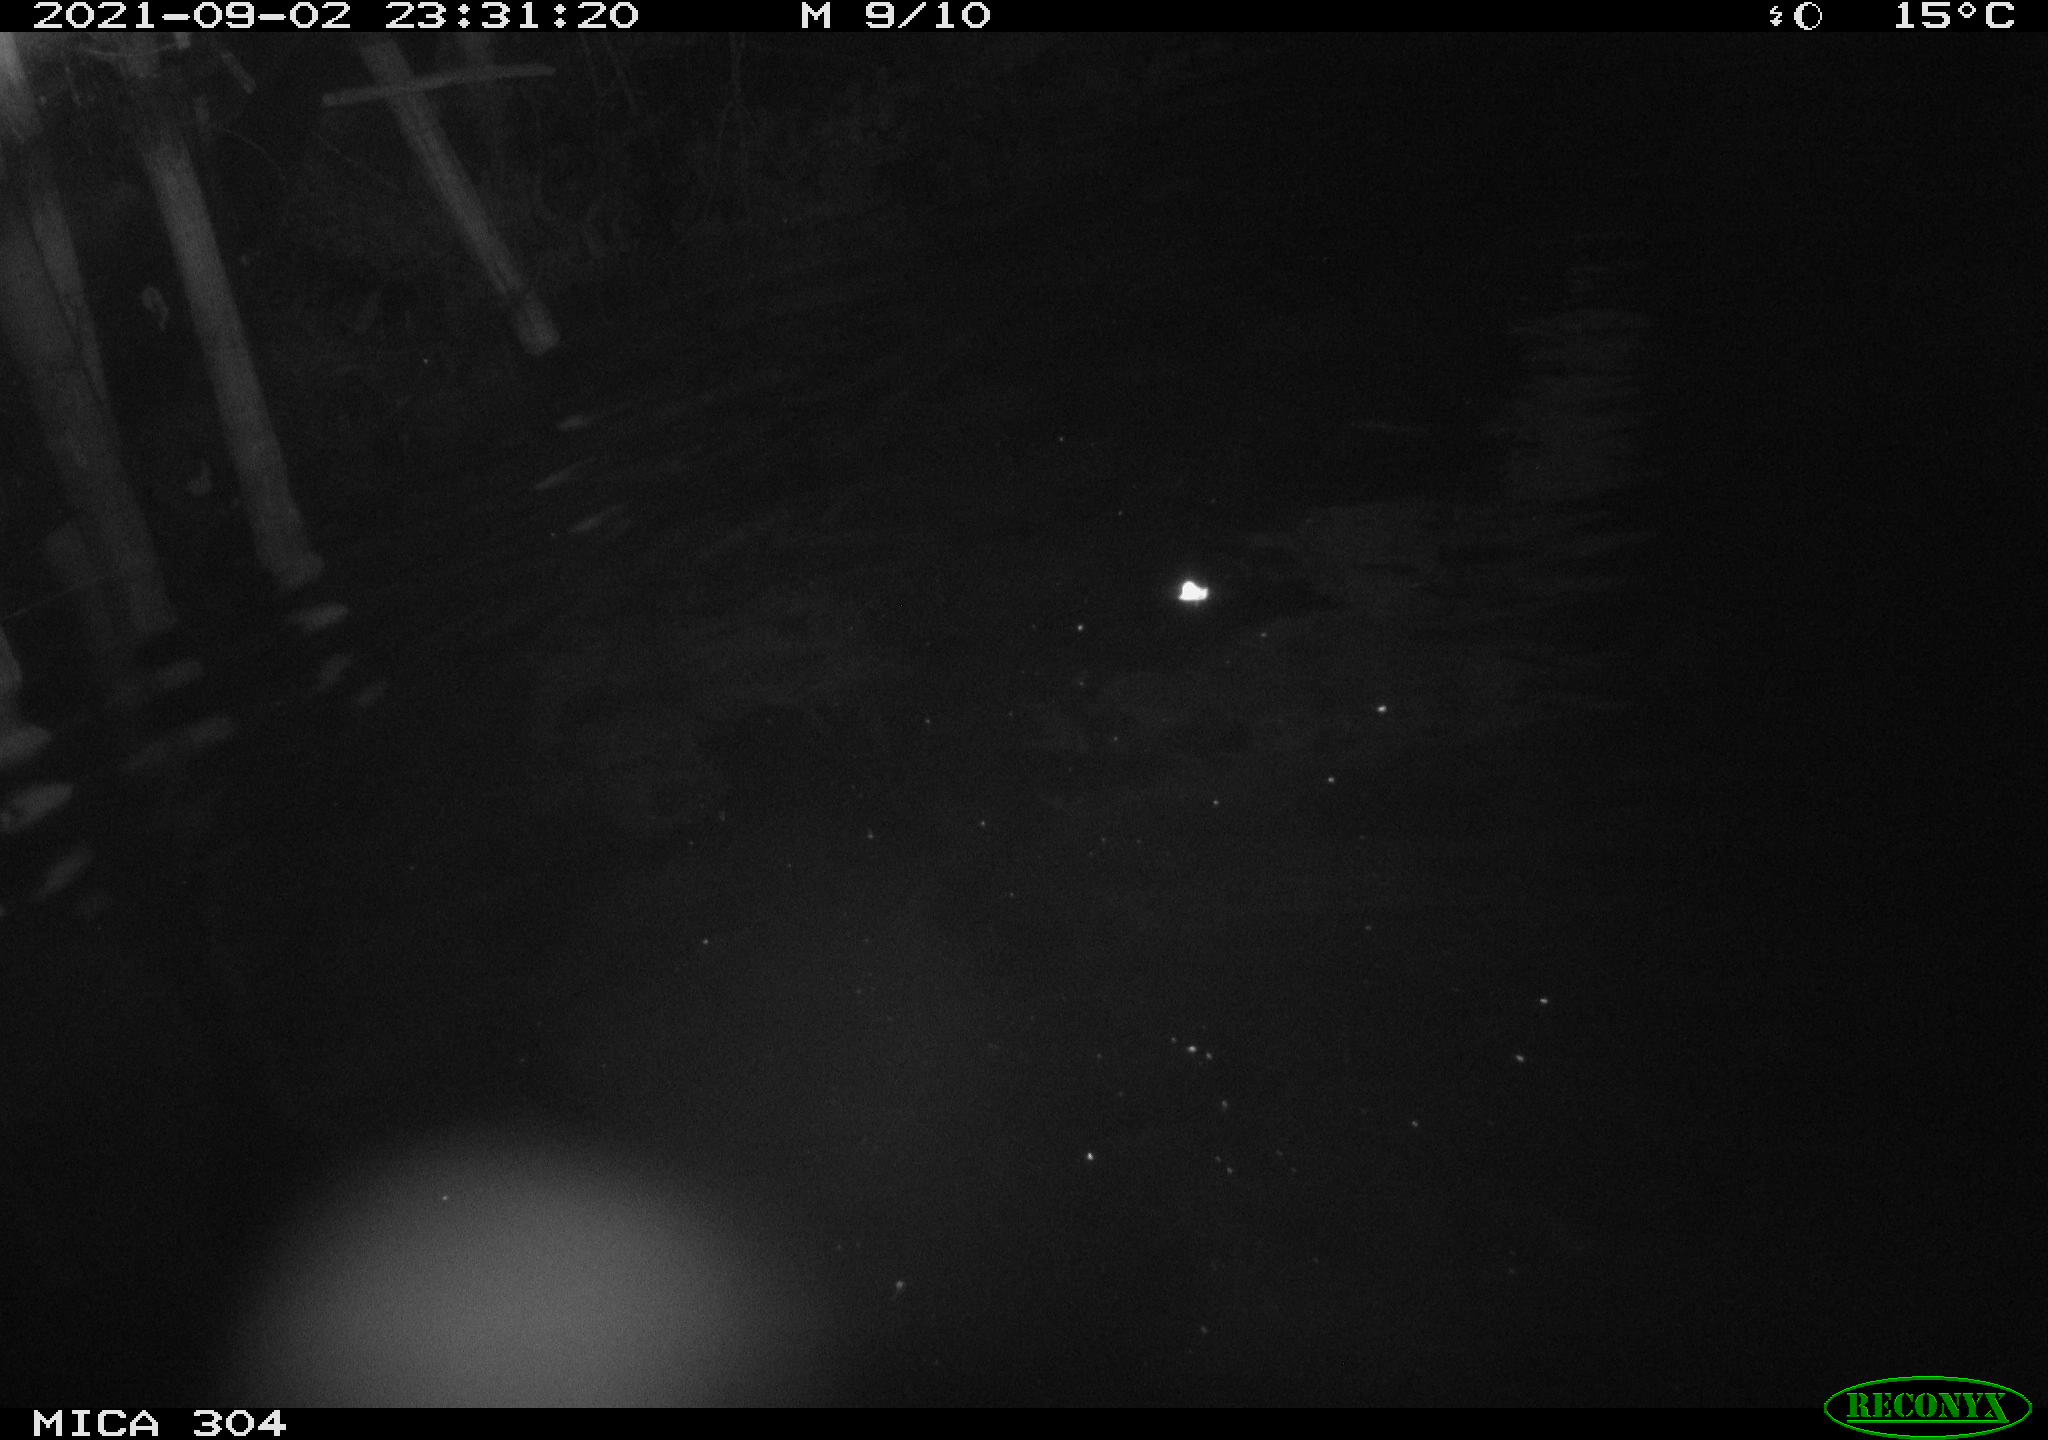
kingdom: Animalia
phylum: Chordata
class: Mammalia
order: Rodentia
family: Cricetidae
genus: Ondatra
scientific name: Ondatra zibethicus
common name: Muskrat
